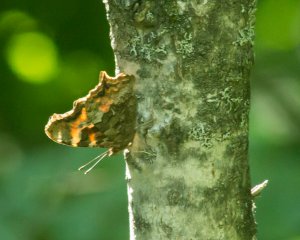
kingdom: Animalia
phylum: Arthropoda
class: Insecta
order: Lepidoptera
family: Nymphalidae
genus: Polygonia
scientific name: Polygonia vaualbum
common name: Compton Tortoiseshell
